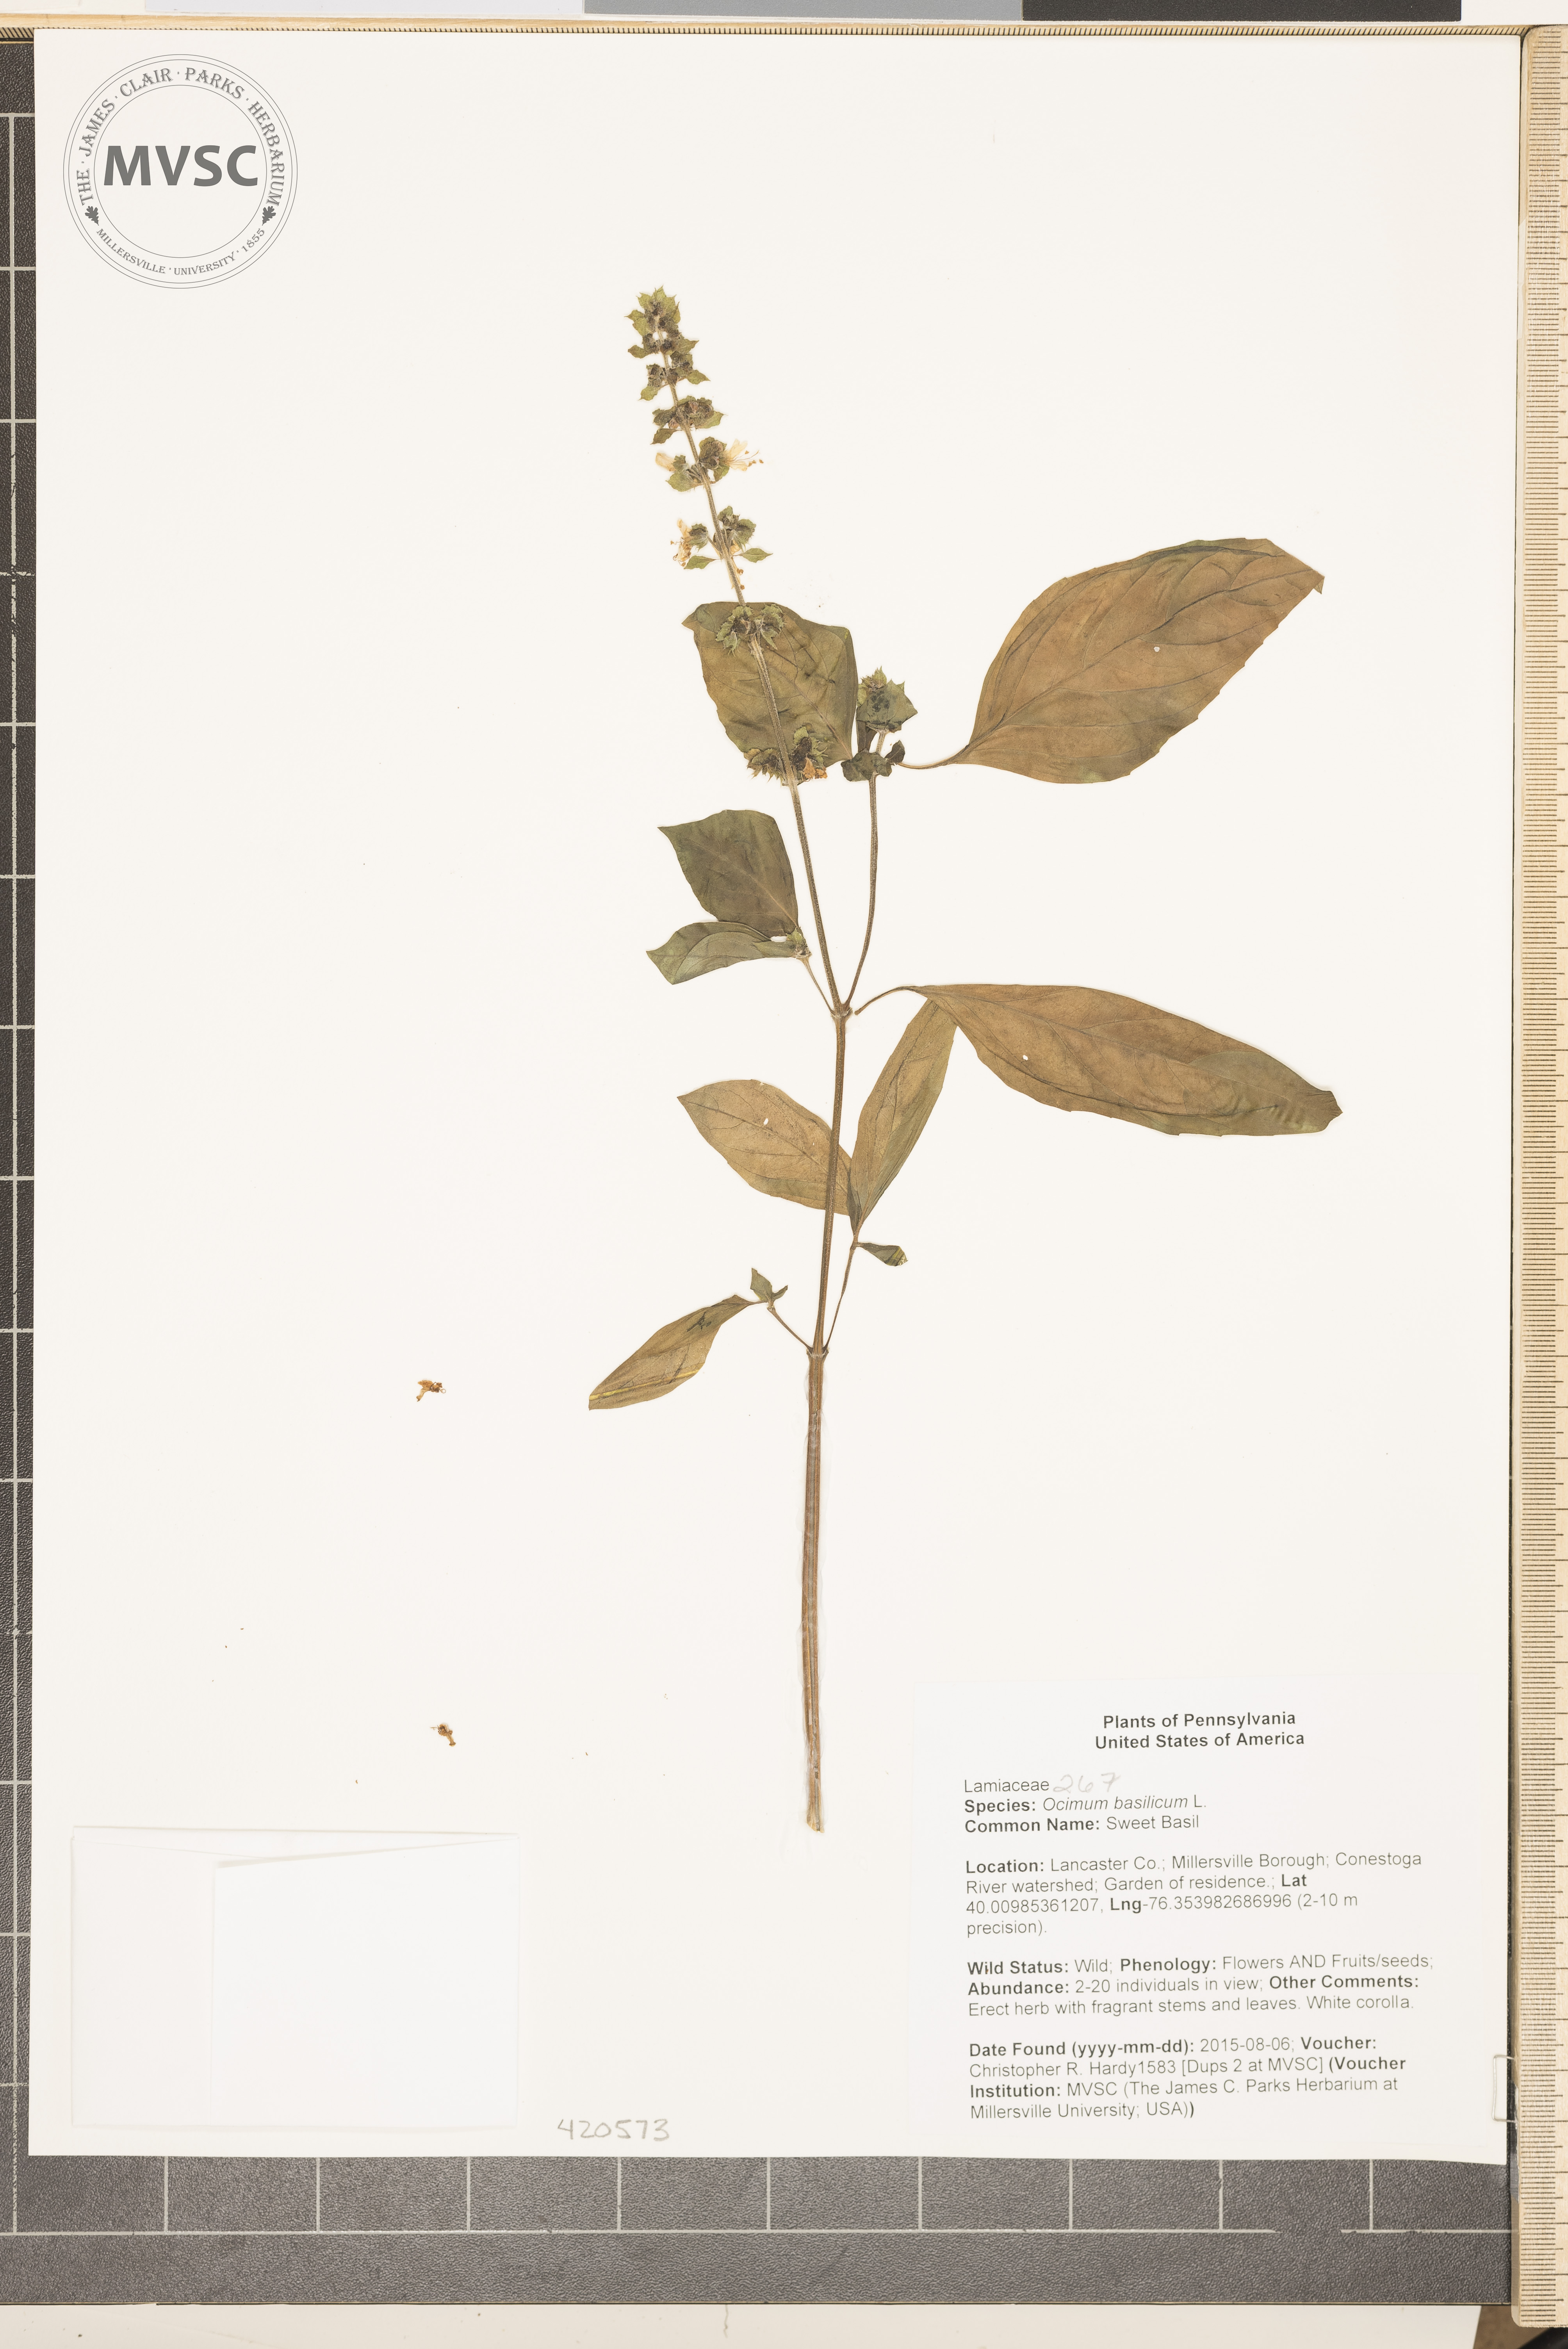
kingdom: Plantae
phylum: Tracheophyta
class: Magnoliopsida
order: Lamiales
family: Lamiaceae
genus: Ocimum
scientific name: Ocimum basilicum
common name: Sweet Basil
